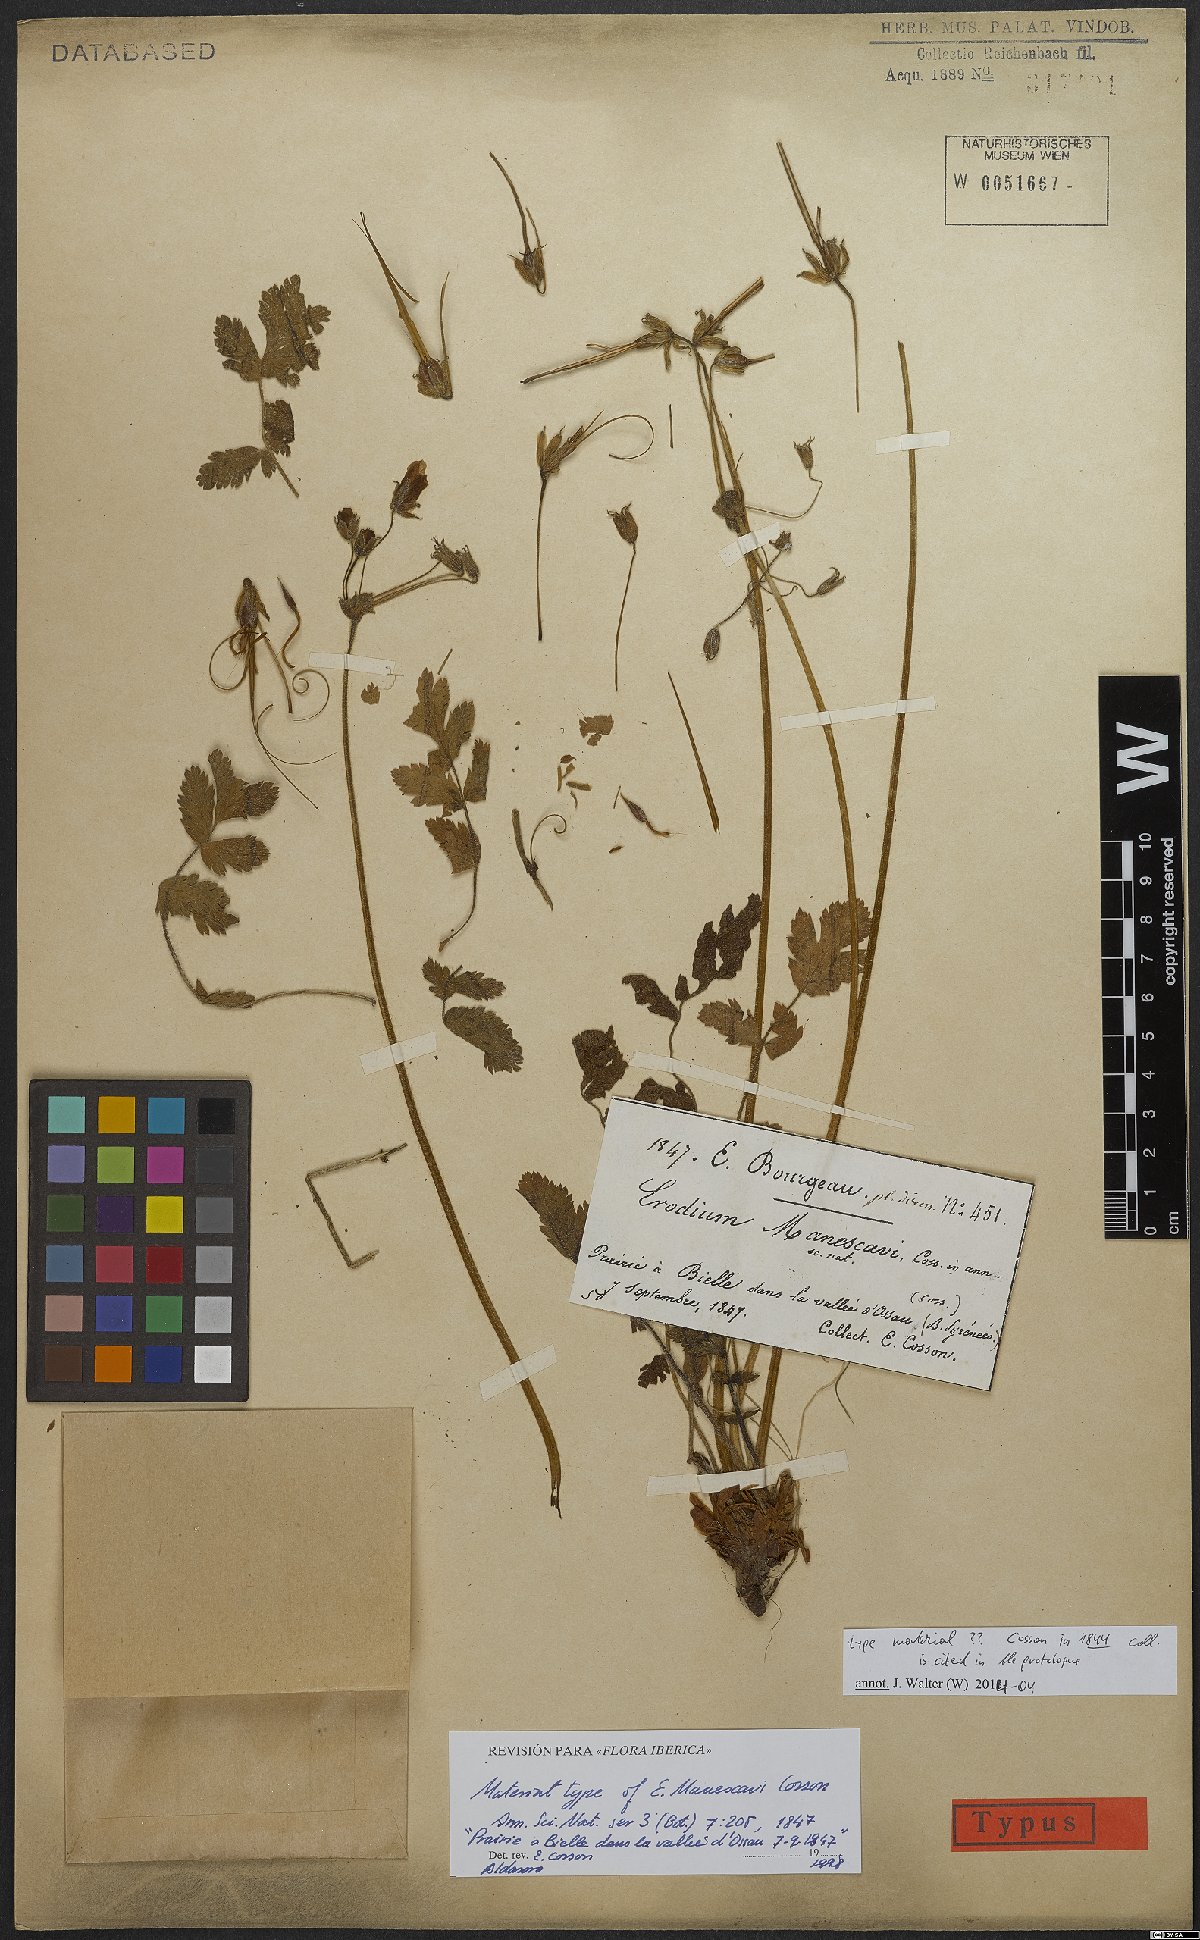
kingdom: Plantae
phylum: Tracheophyta
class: Magnoliopsida
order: Geraniales
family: Geraniaceae
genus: Erodium
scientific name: Erodium manescavi
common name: Garden stork's-bill
